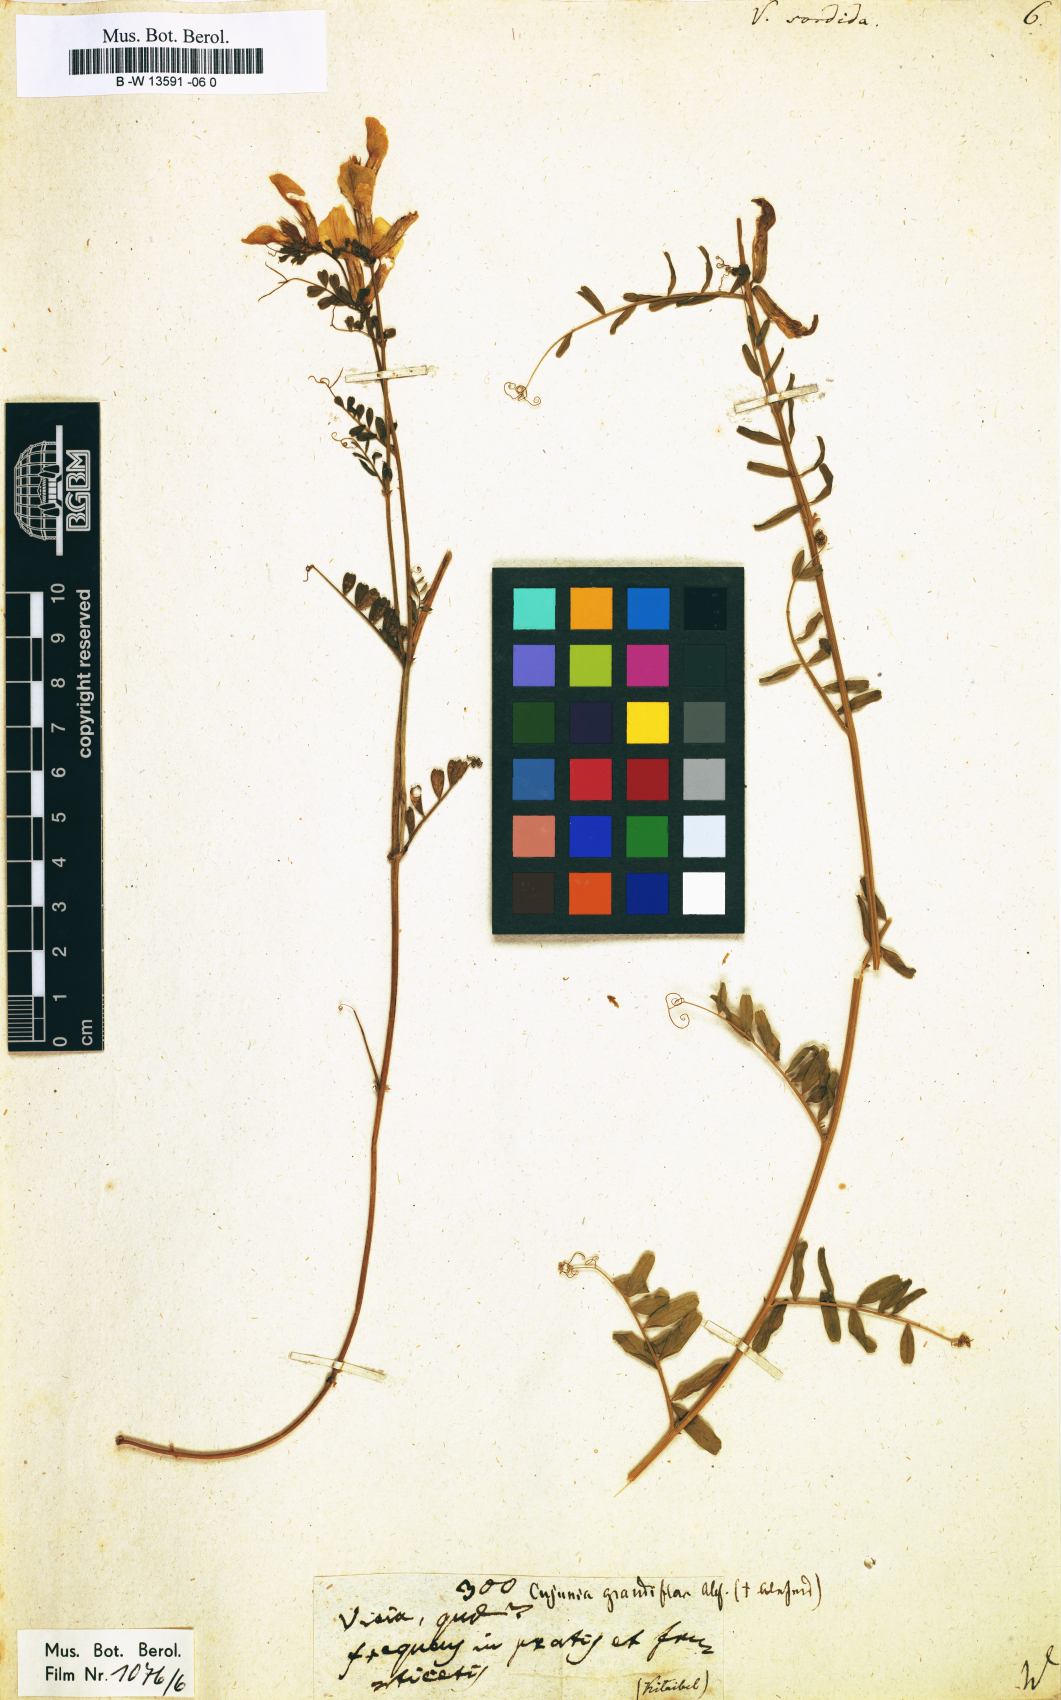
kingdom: Plantae
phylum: Tracheophyta
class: Magnoliopsida
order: Fabales
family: Fabaceae
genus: Vicia
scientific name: Vicia
